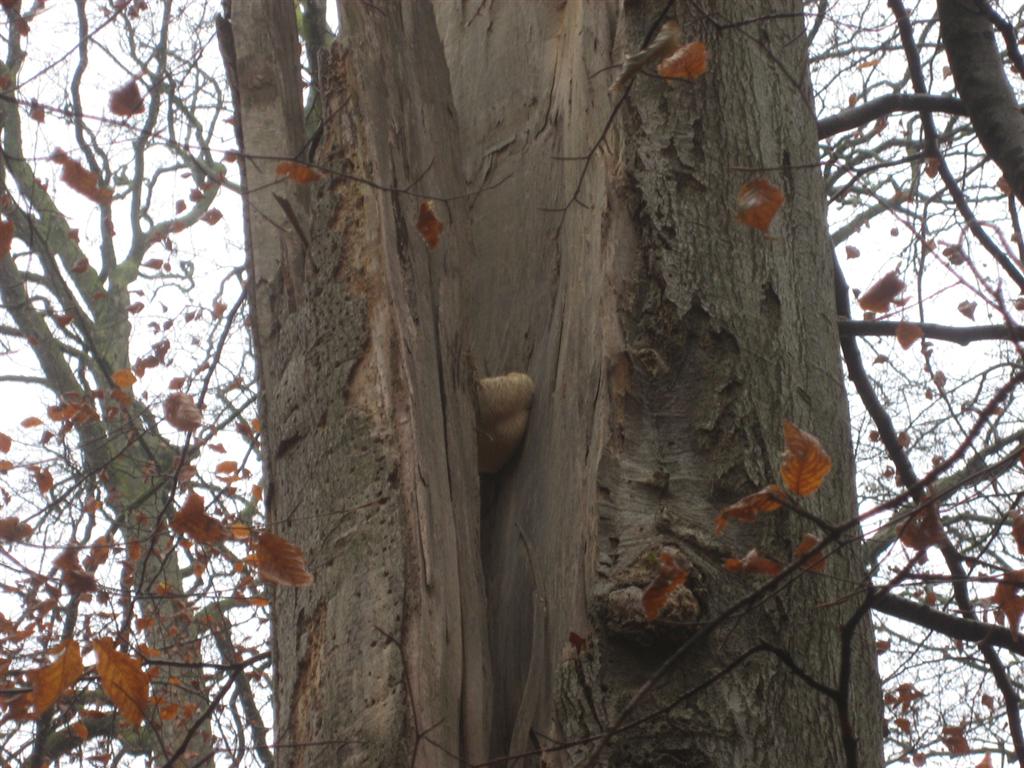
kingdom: Fungi
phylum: Basidiomycota
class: Agaricomycetes
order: Russulales
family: Hericiaceae
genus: Hericium
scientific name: Hericium erinaceus
